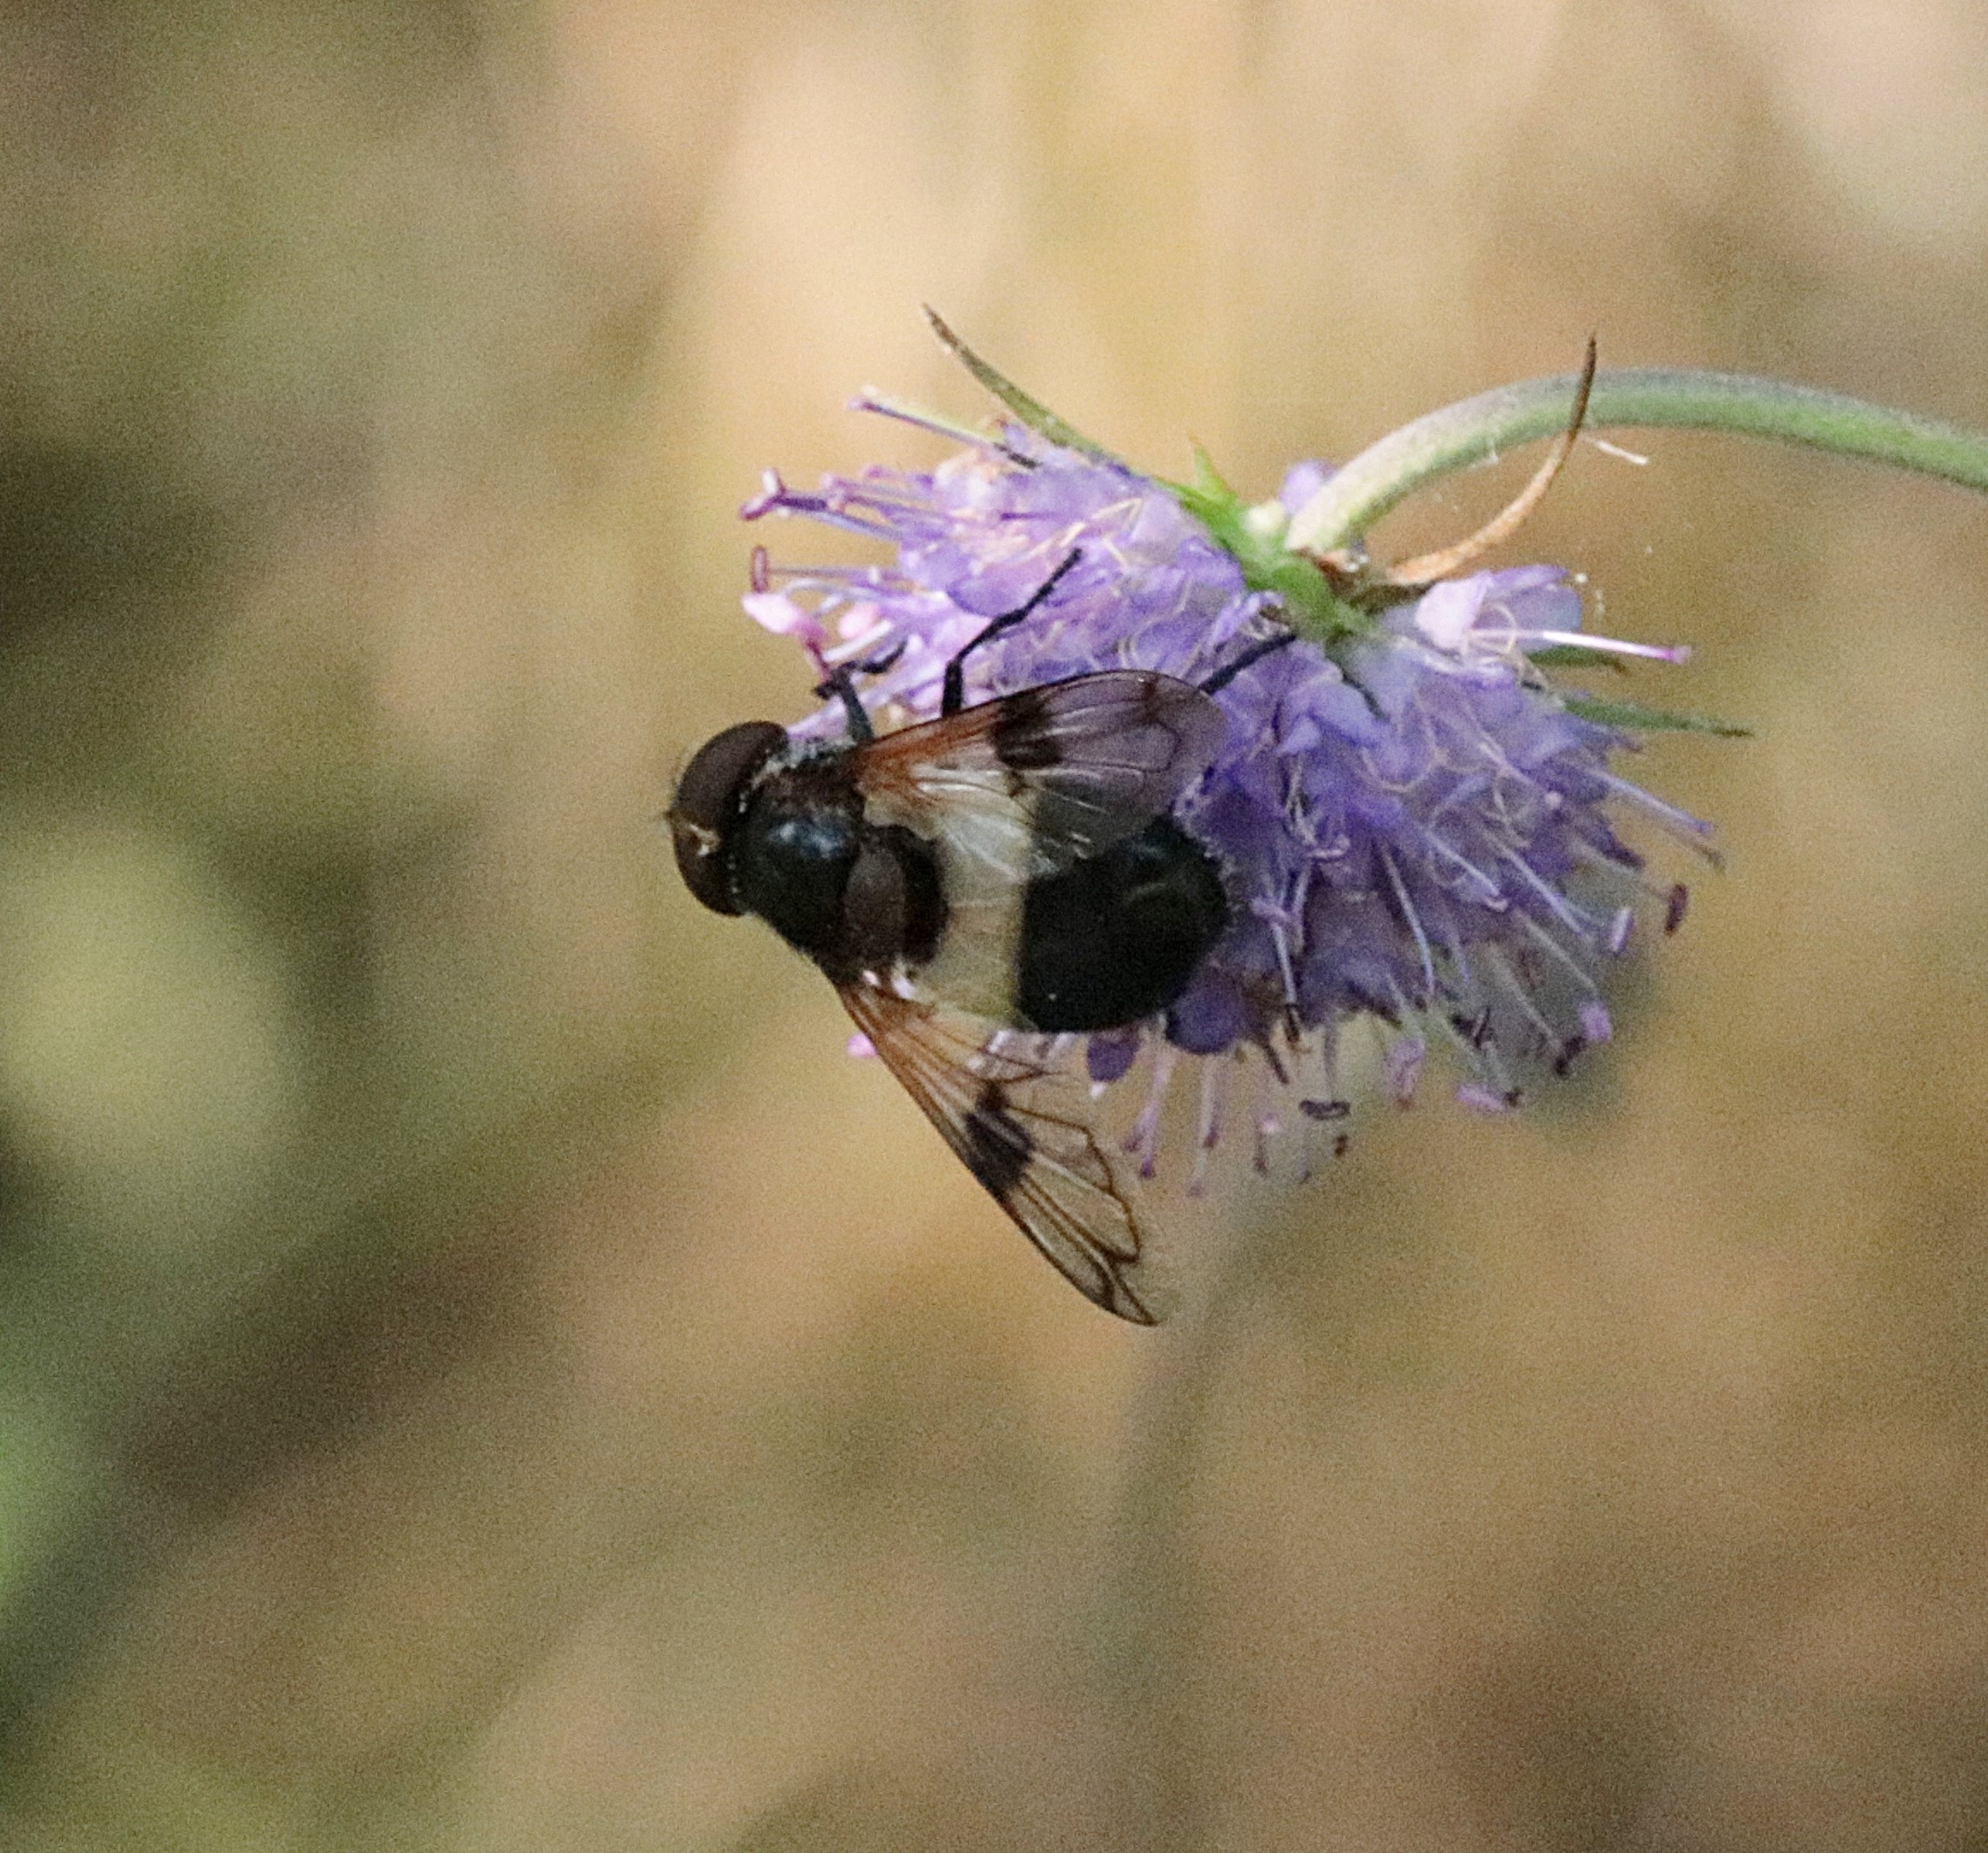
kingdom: Animalia
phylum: Arthropoda
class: Insecta
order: Diptera
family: Syrphidae
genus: Volucella
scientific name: Volucella pellucens
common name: Hvidbåndet humlesvirreflue
